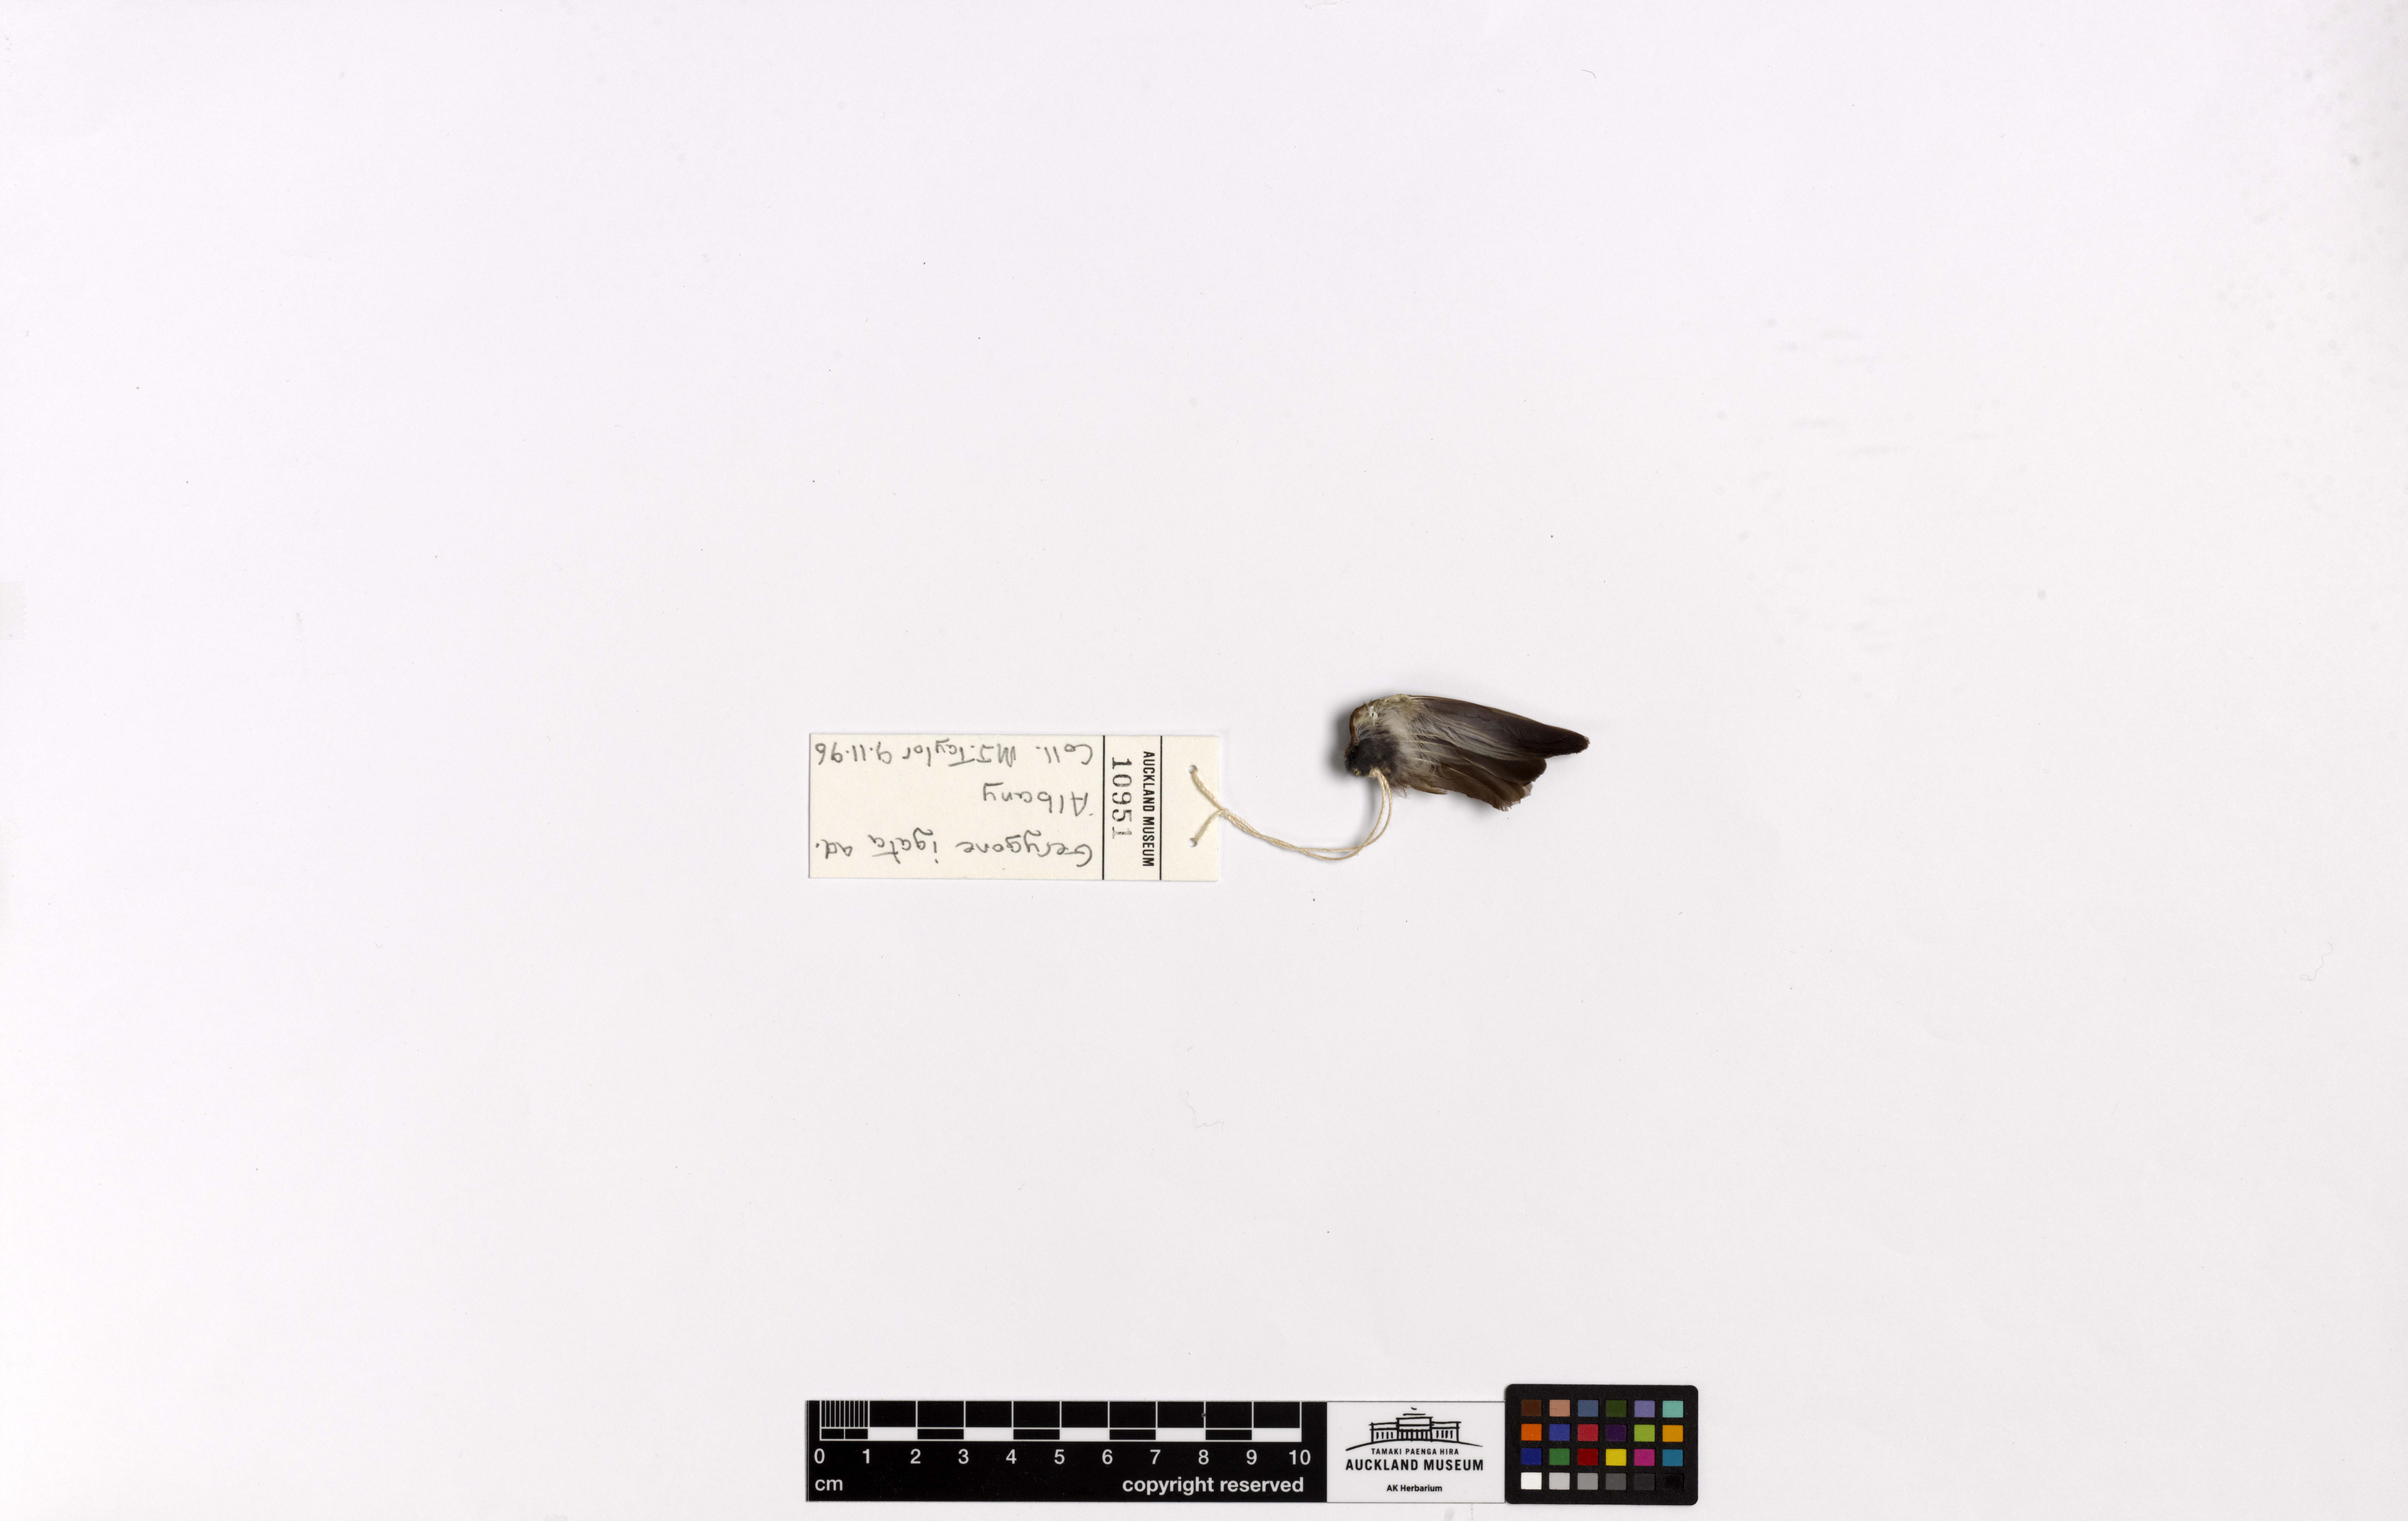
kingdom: Animalia
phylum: Chordata
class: Aves
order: Passeriformes
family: Acanthizidae
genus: Gerygone
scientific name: Gerygone igata
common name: Grey gerygone
